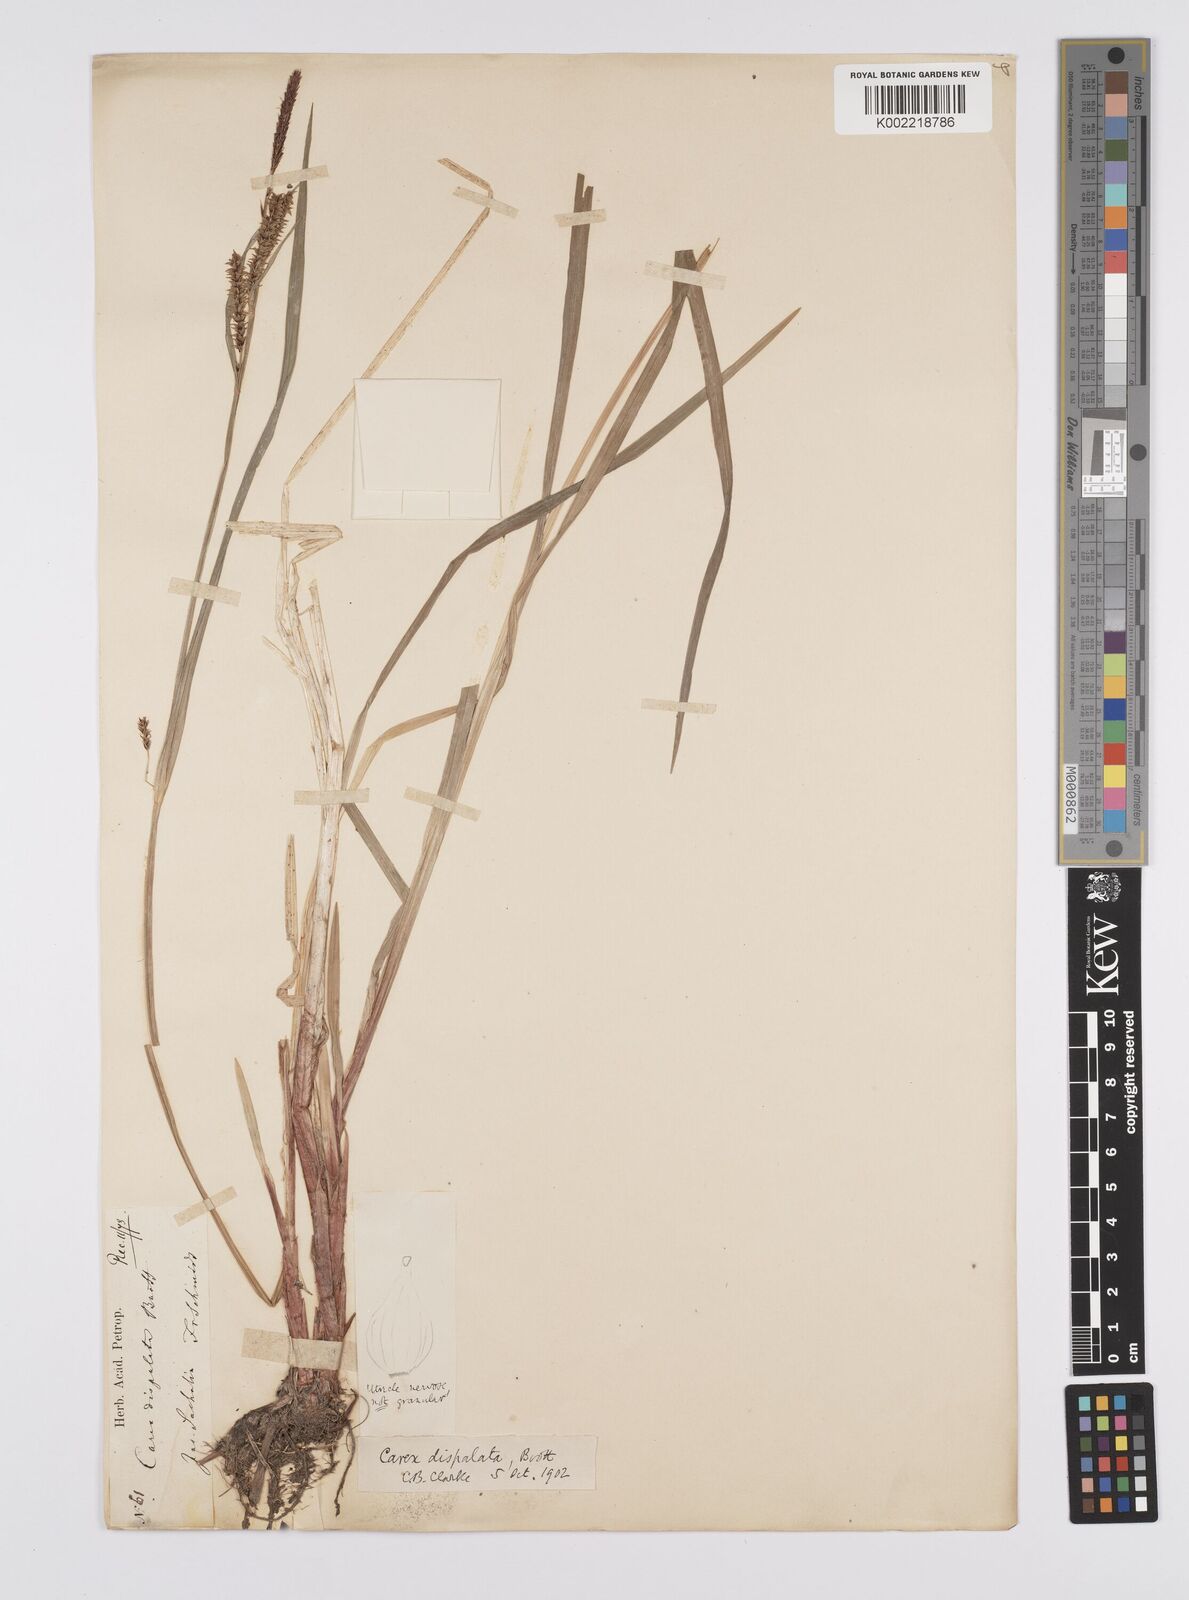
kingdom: Plantae
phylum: Tracheophyta
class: Liliopsida
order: Poales
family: Cyperaceae
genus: Carex
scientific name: Carex dispalata
